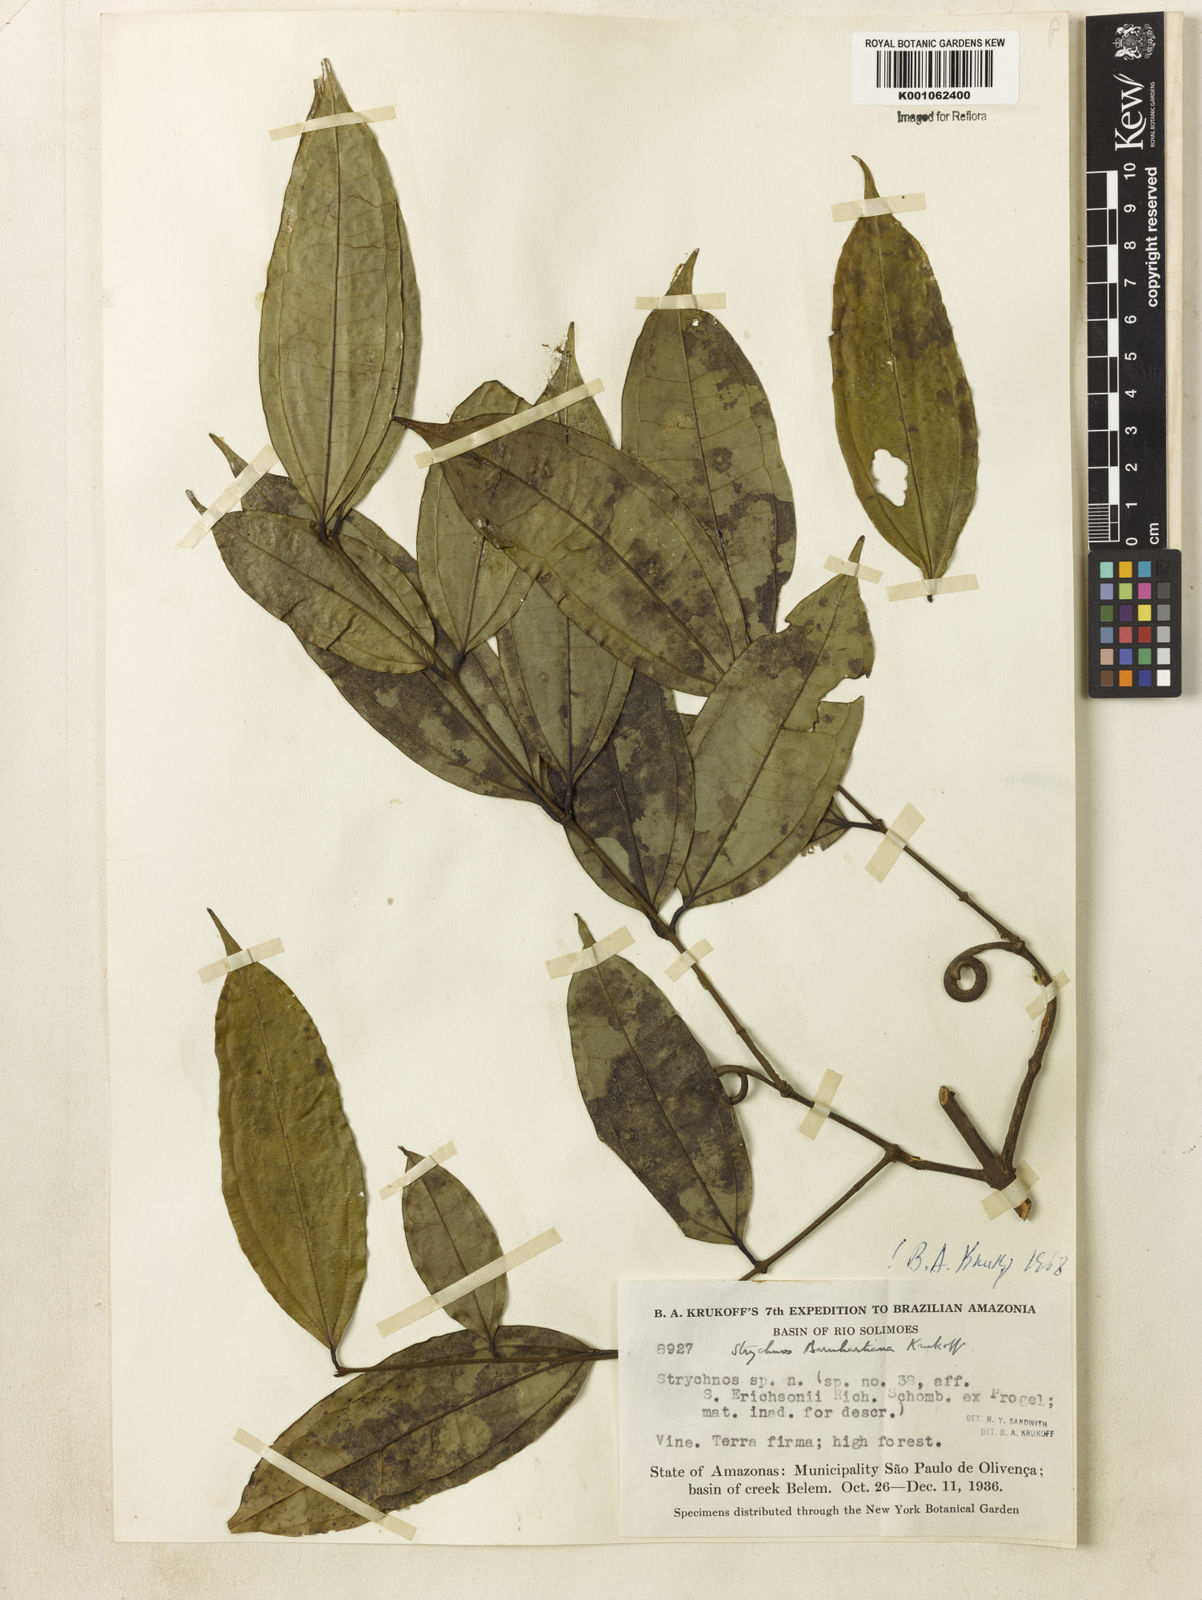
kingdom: Plantae
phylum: Tracheophyta
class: Magnoliopsida
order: Gentianales
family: Loganiaceae
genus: Strychnos
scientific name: Strychnos barnhartiana
